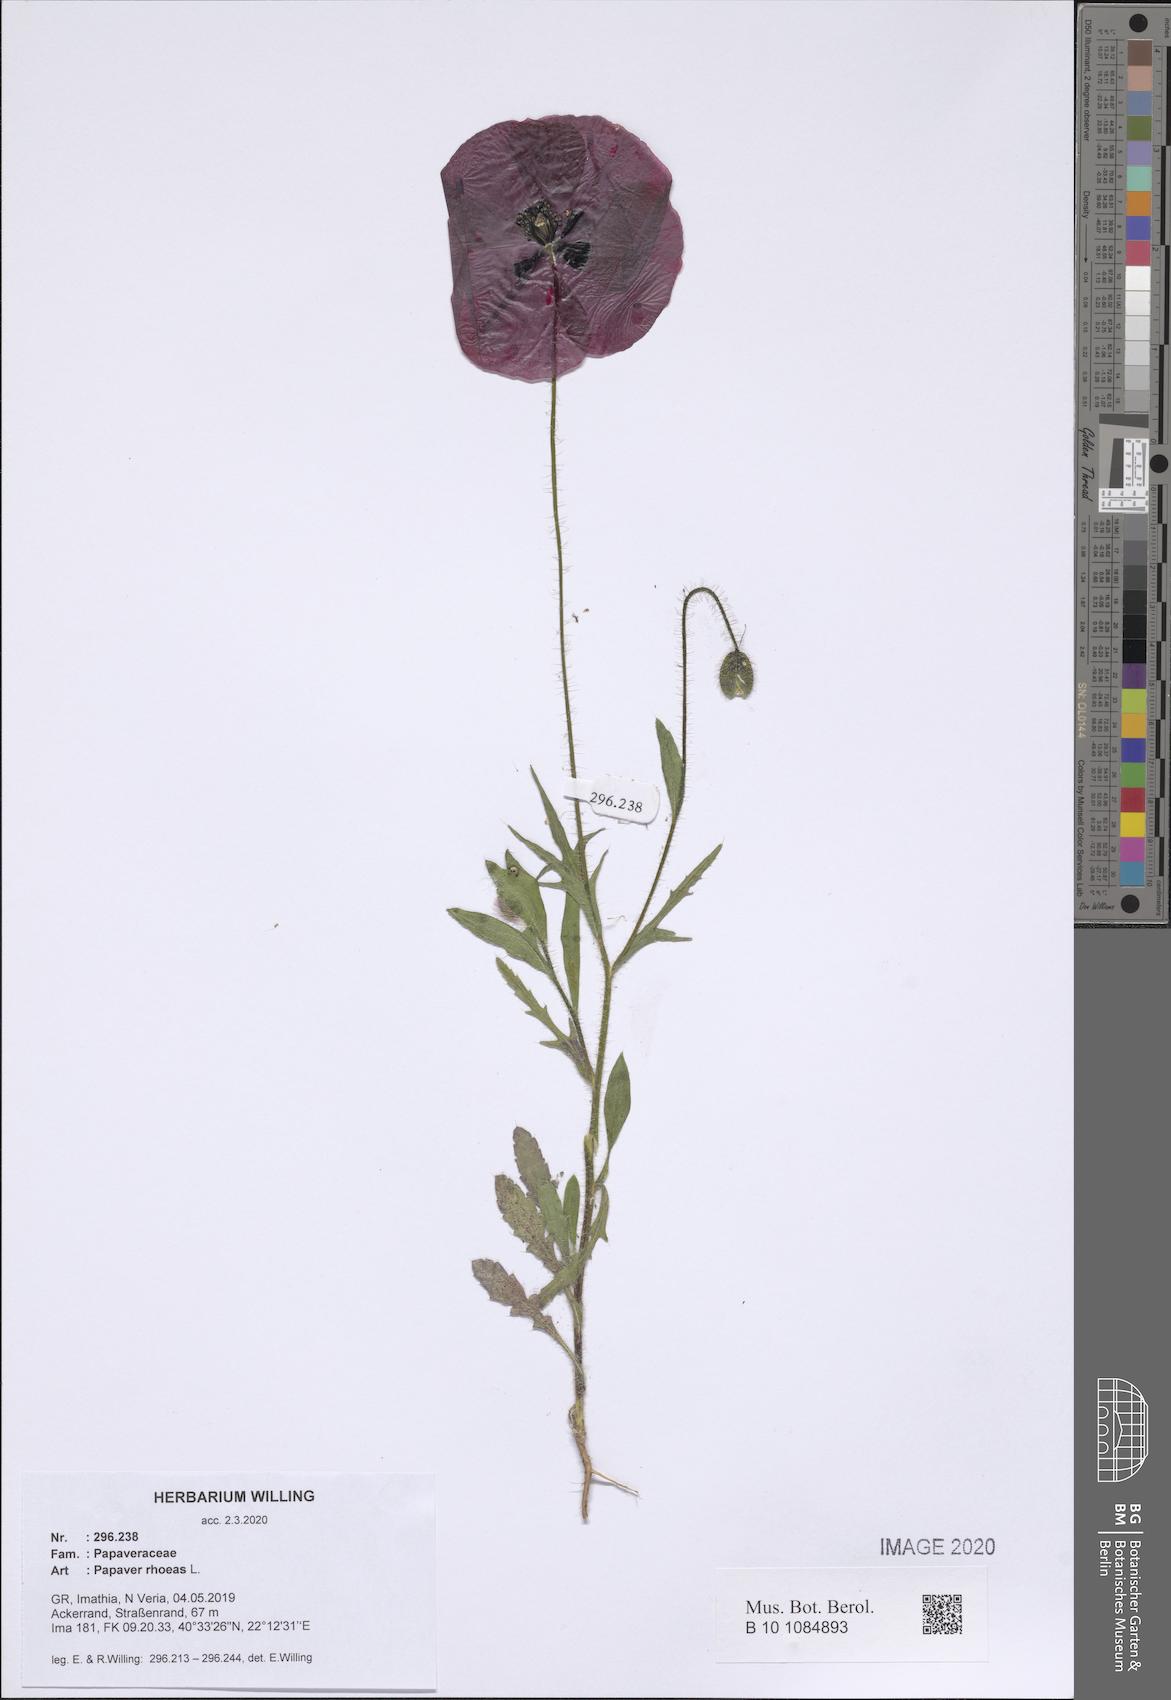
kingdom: Plantae
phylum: Tracheophyta
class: Magnoliopsida
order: Ranunculales
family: Papaveraceae
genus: Papaver
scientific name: Papaver rhoeas
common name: Corn poppy
